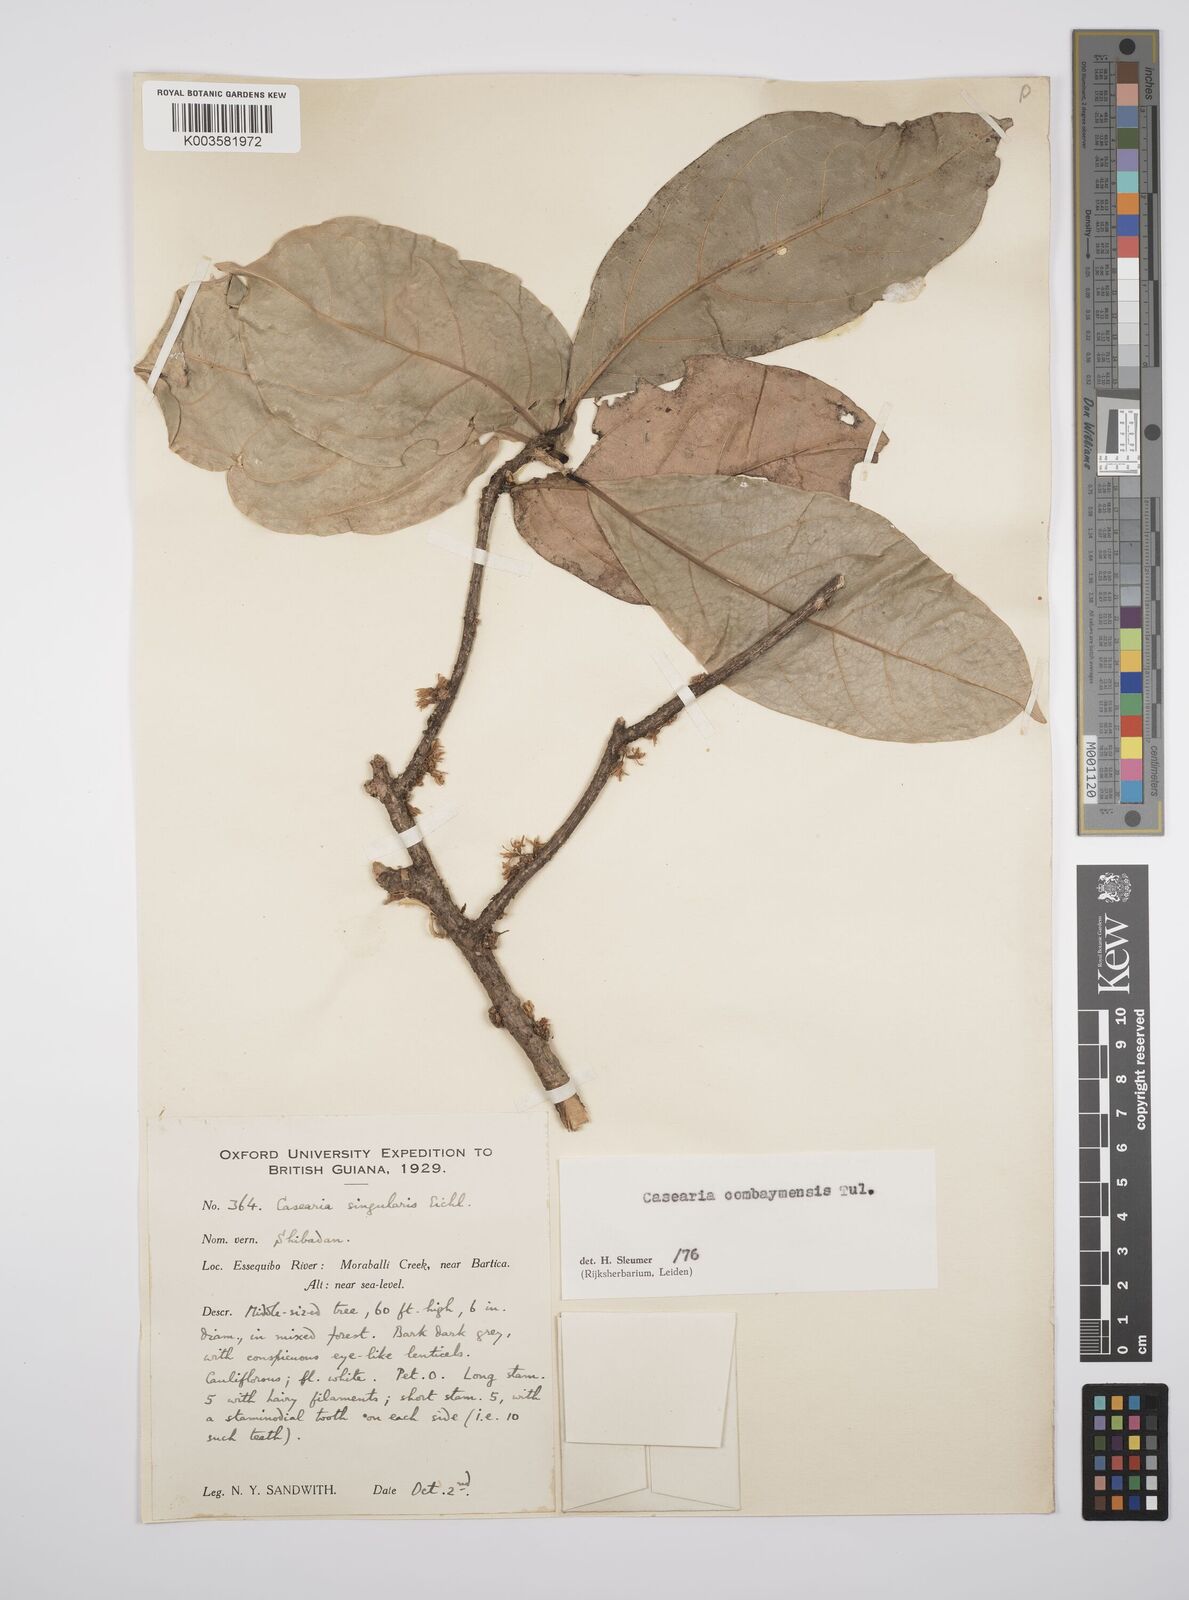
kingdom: Plantae
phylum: Tracheophyta
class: Magnoliopsida
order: Malpighiales
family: Salicaceae
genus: Casearia
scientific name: Casearia combaymensis
